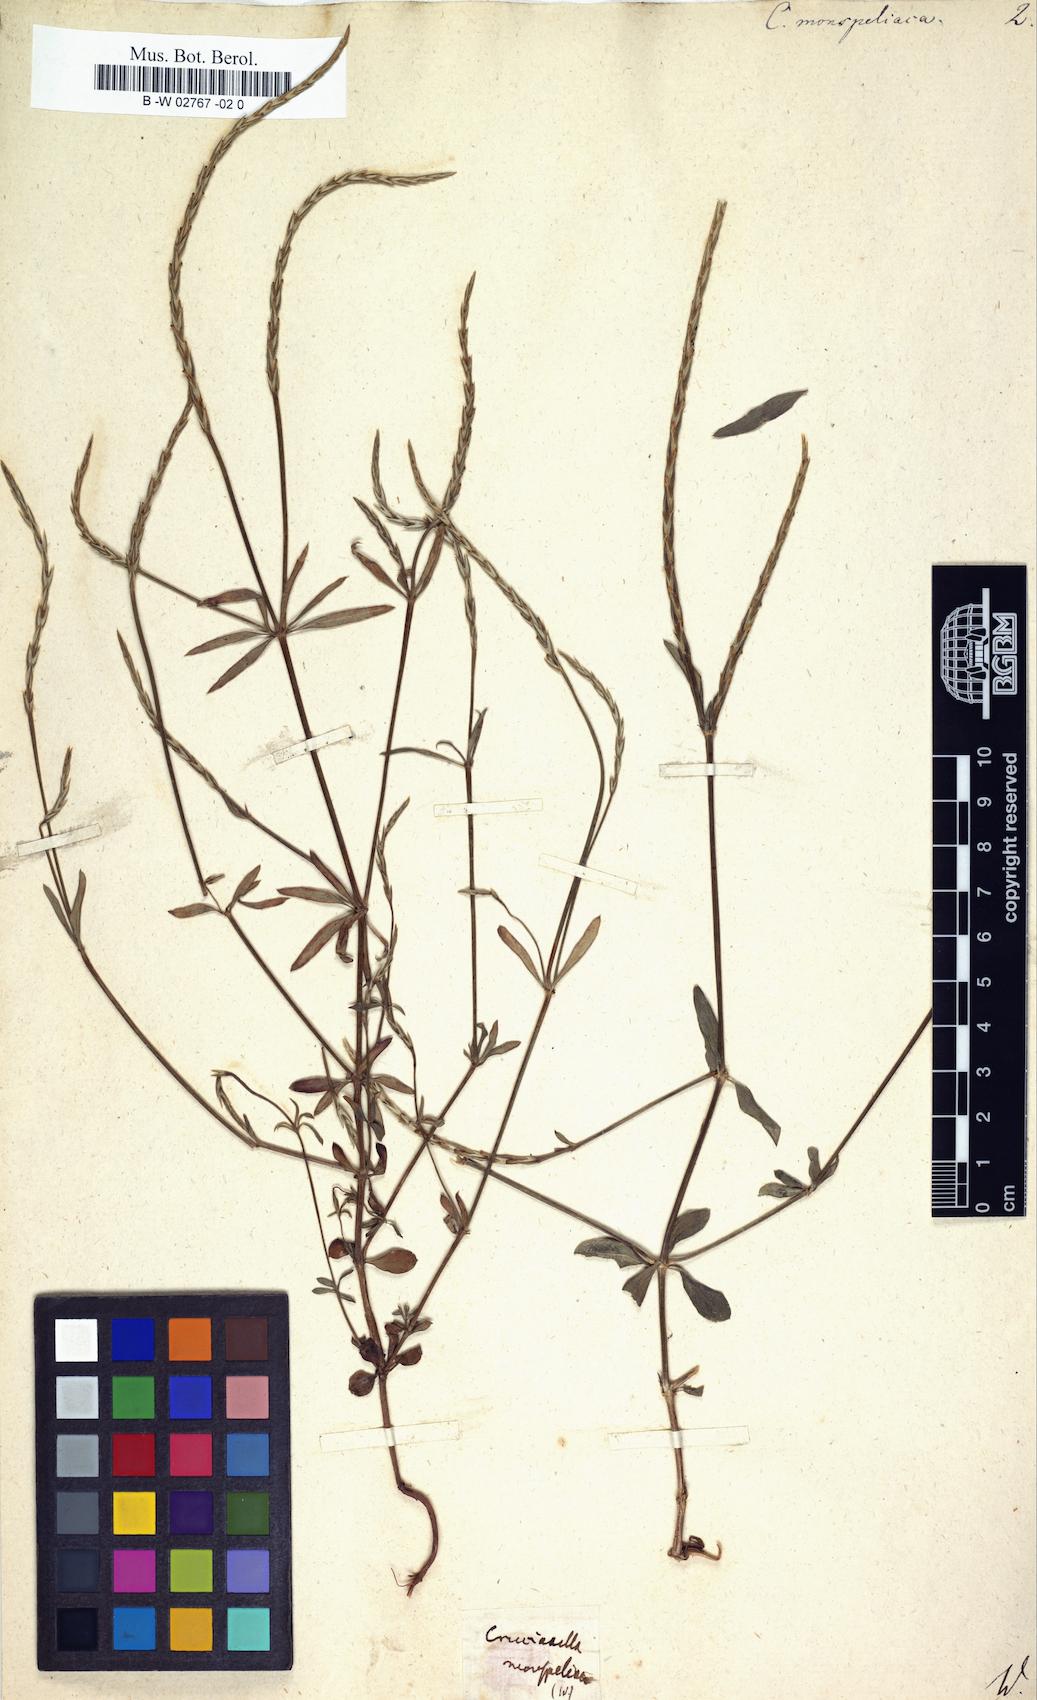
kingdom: Plantae
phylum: Tracheophyta
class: Magnoliopsida
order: Gentianales
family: Rubiaceae
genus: Crucianella
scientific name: Crucianella latifolia
